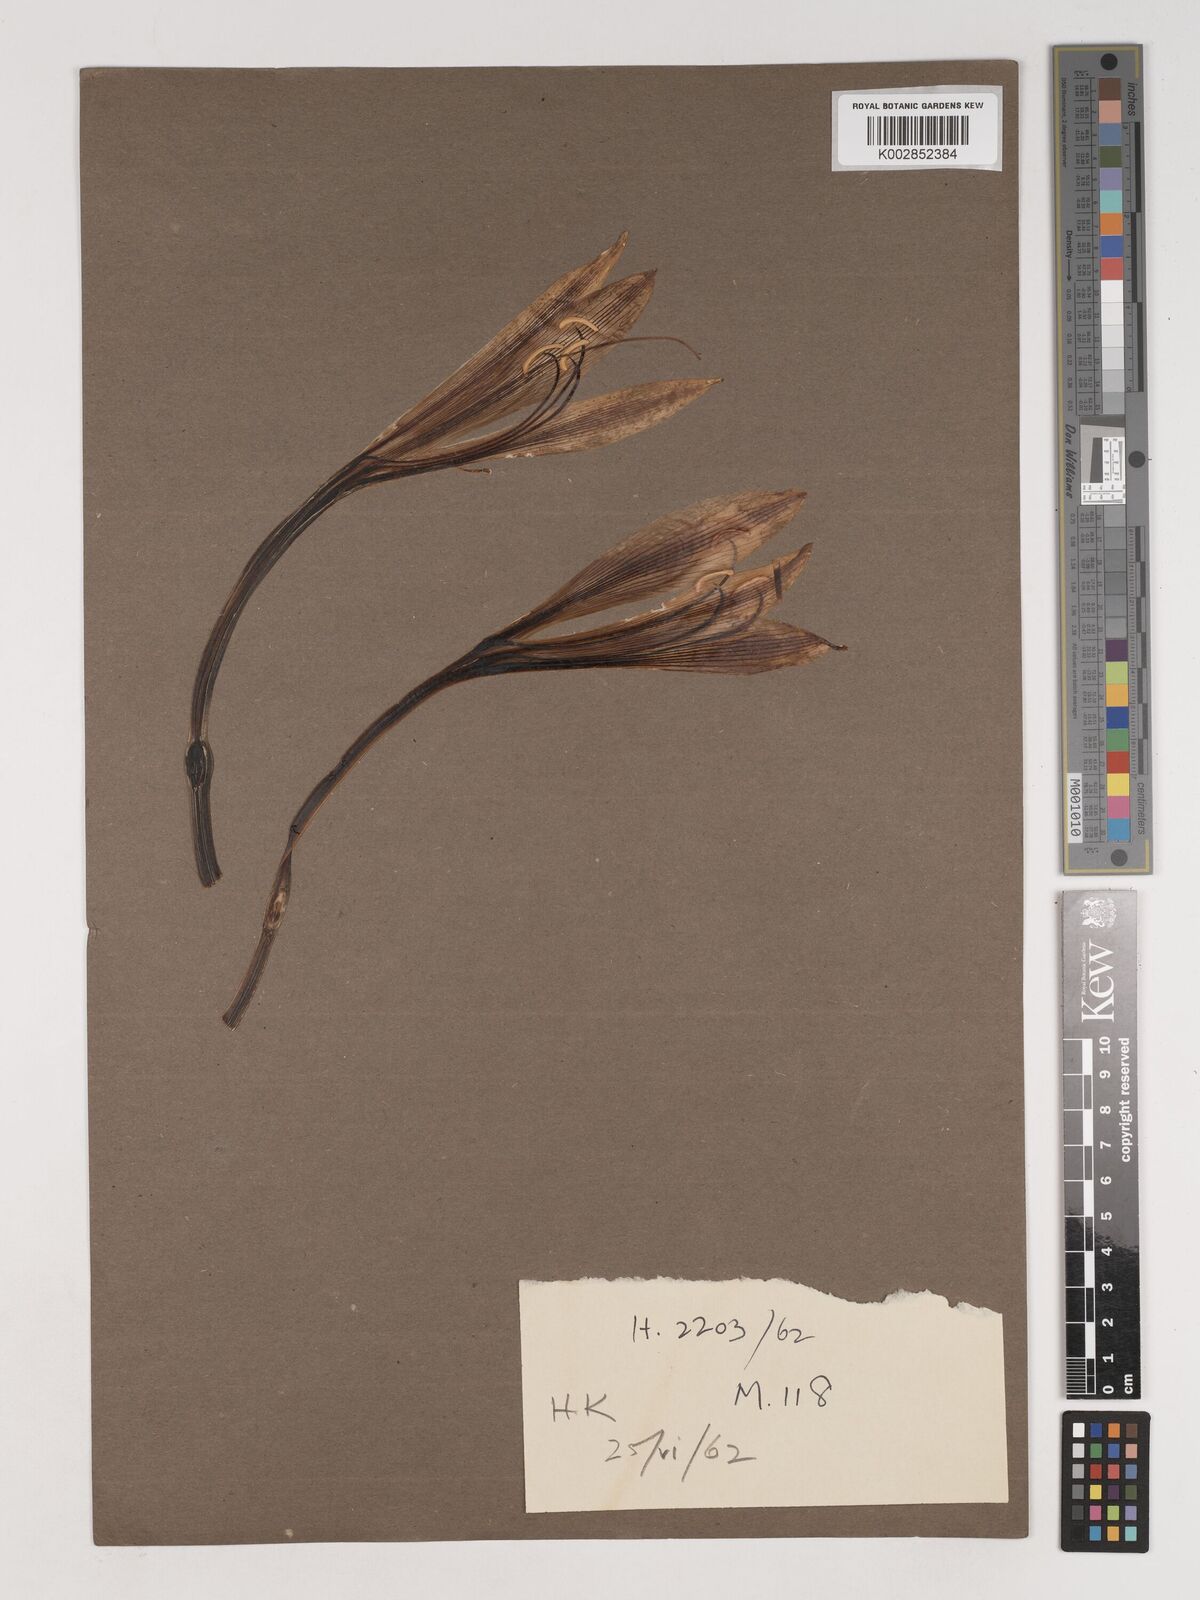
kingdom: Plantae
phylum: Tracheophyta
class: Liliopsida
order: Asparagales
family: Amaryllidaceae
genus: Crinum
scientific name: Crinum stuhlmannii
